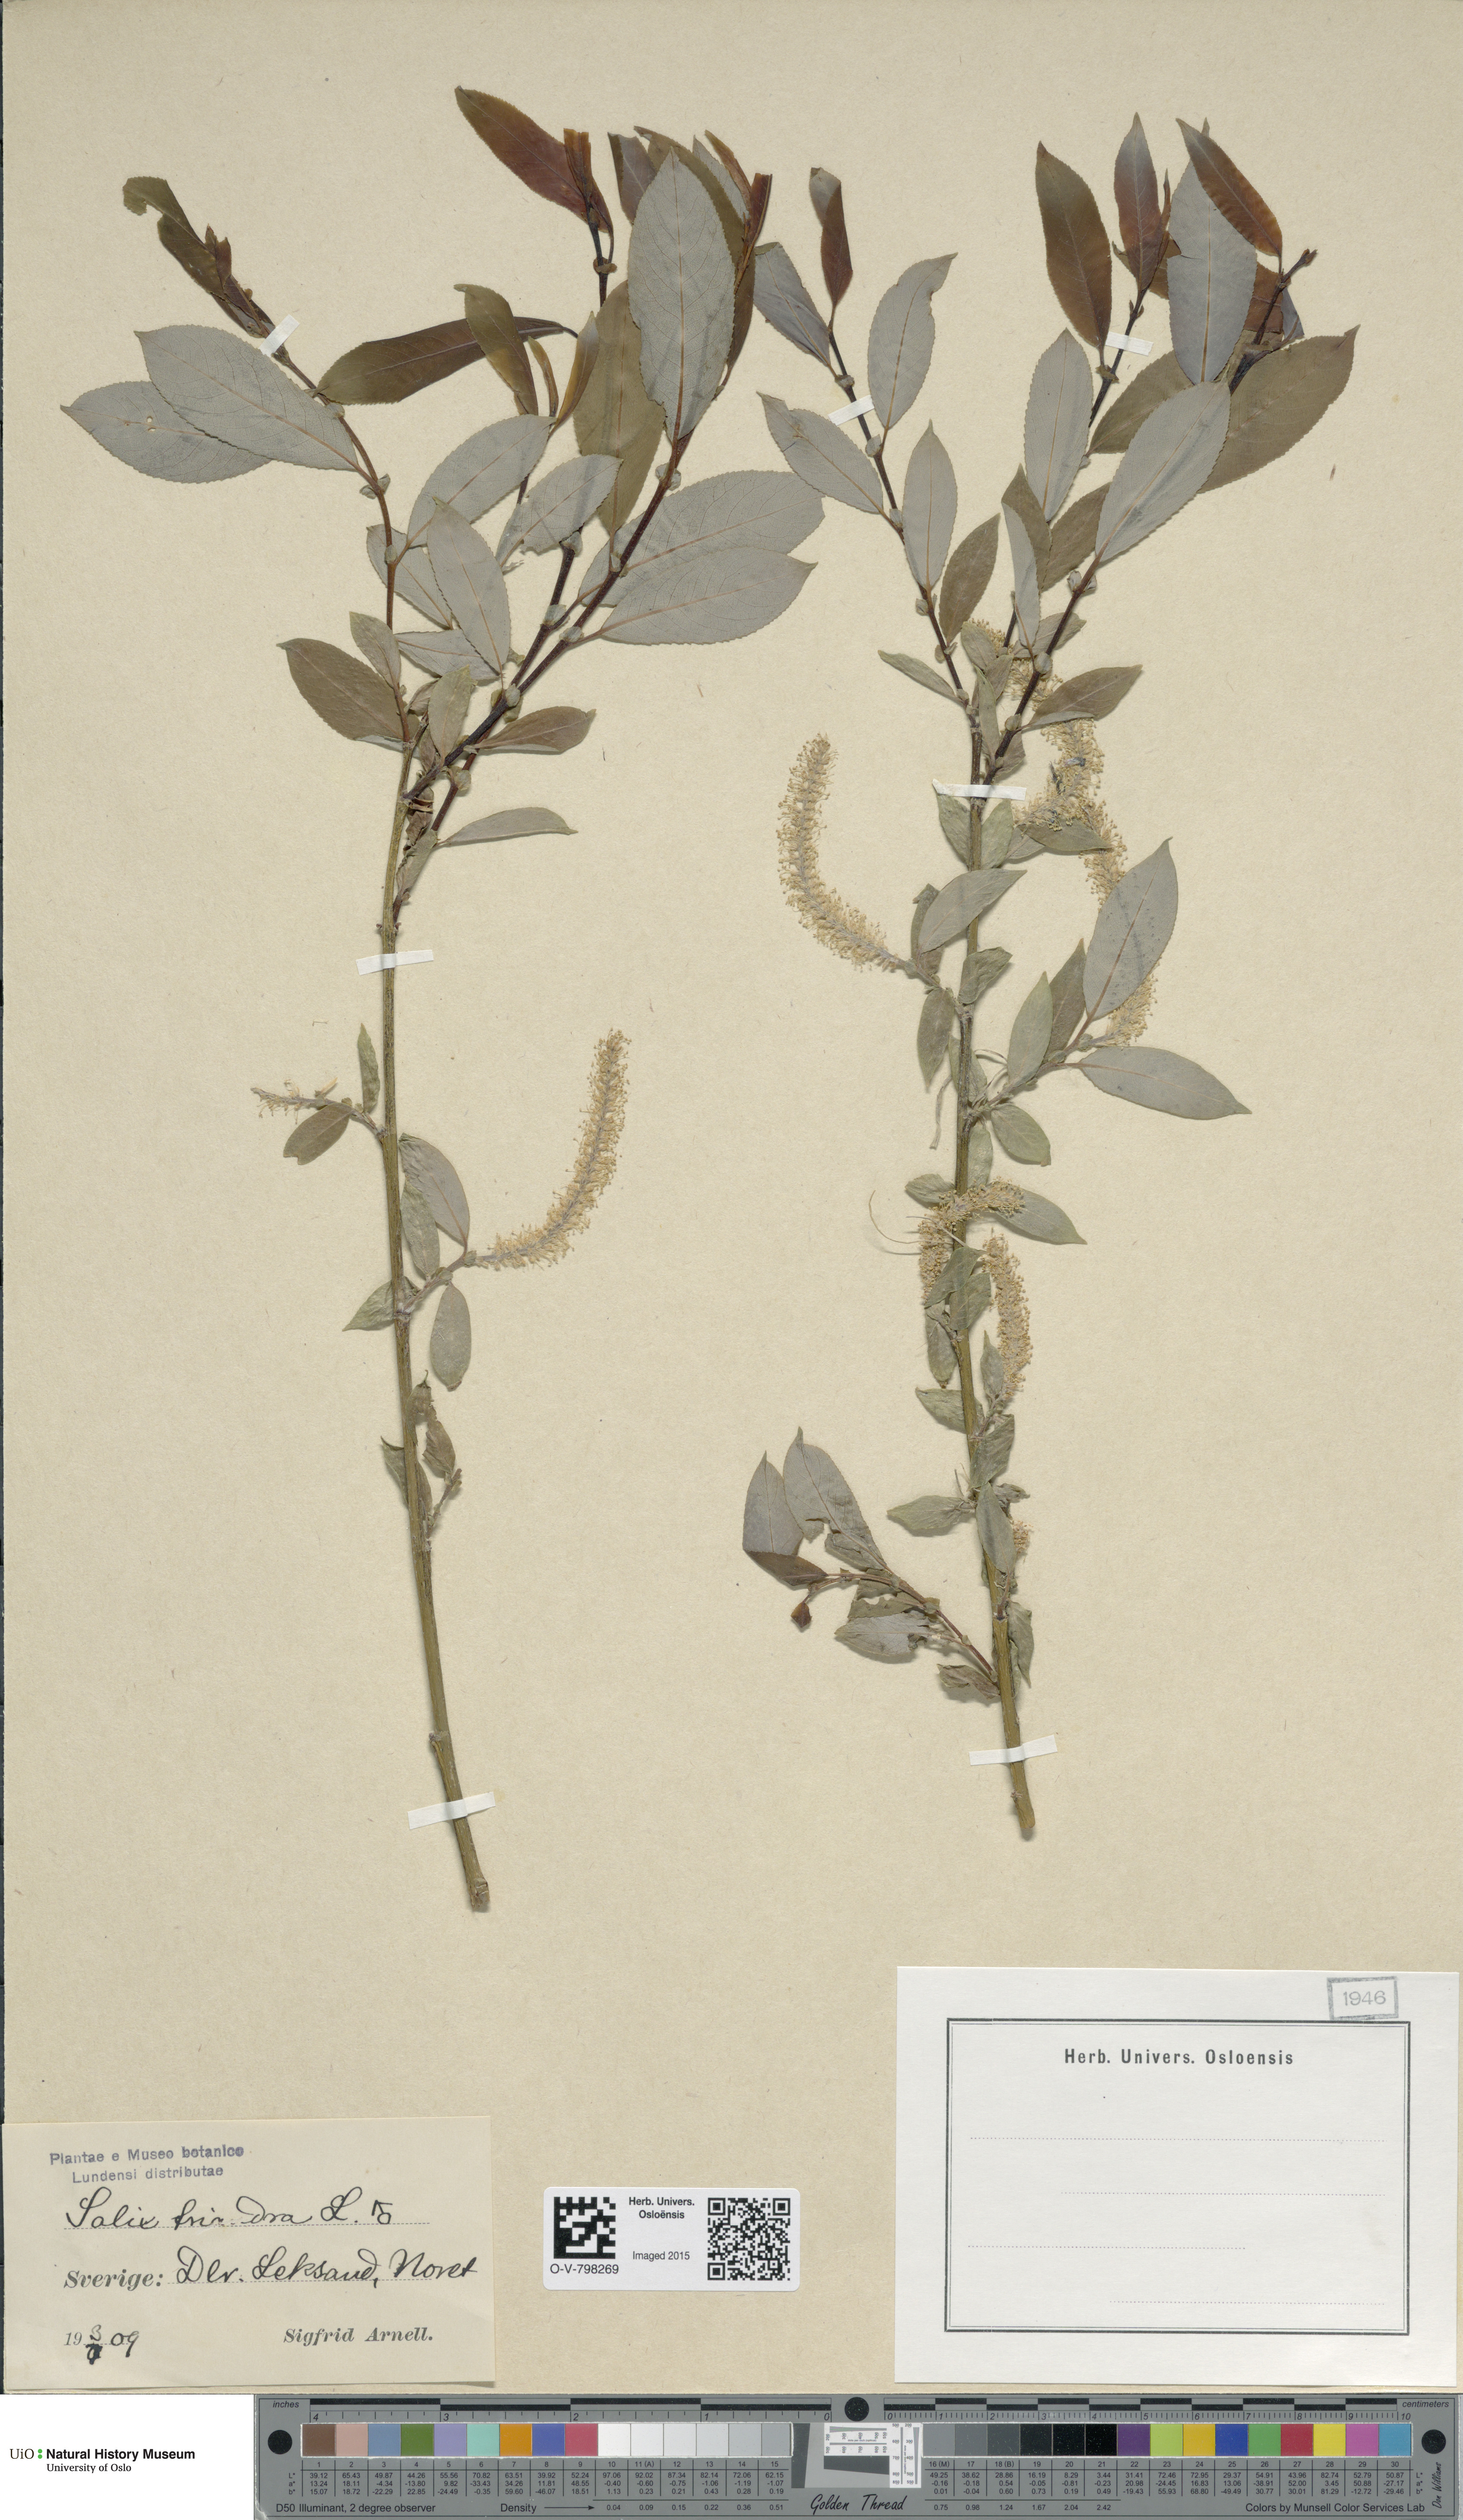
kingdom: Plantae
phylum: Tracheophyta
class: Magnoliopsida
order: Malpighiales
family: Salicaceae
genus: Salix
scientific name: Salix triandra
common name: Almond willow
